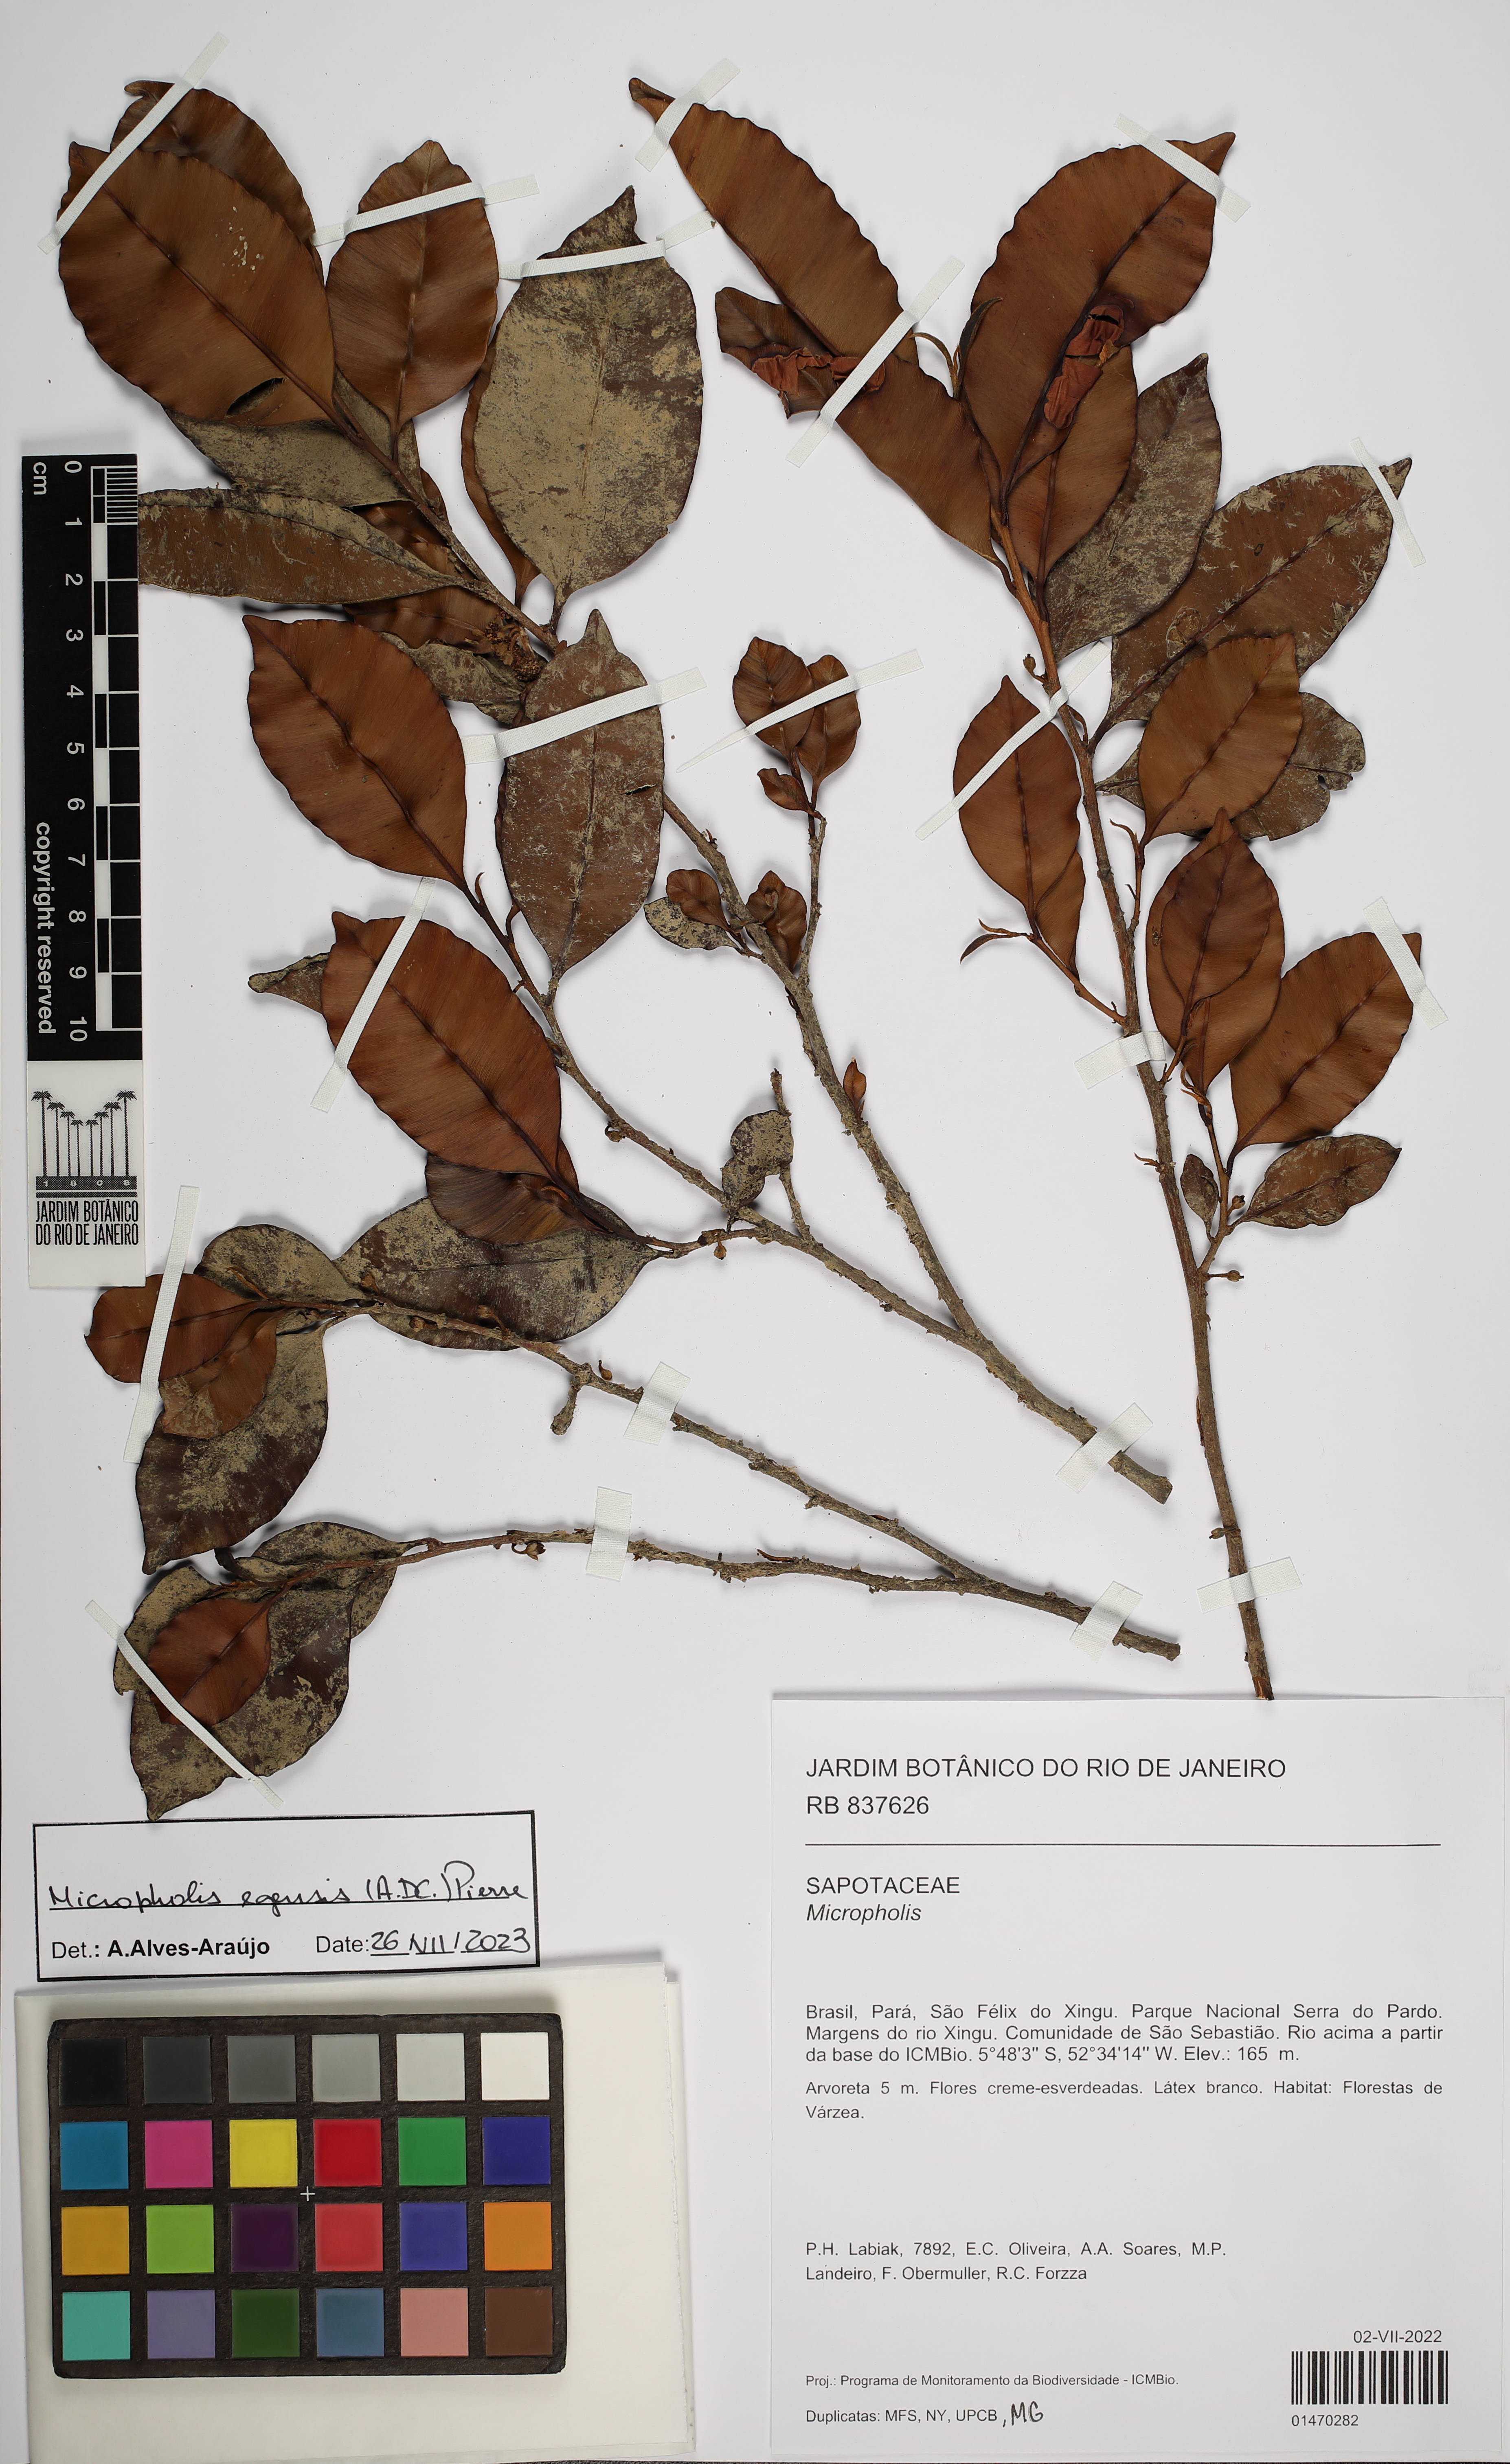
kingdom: Plantae
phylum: Tracheophyta
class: Magnoliopsida
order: Ericales
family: Sapotaceae
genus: Micropholis
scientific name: Micropholis egensis
